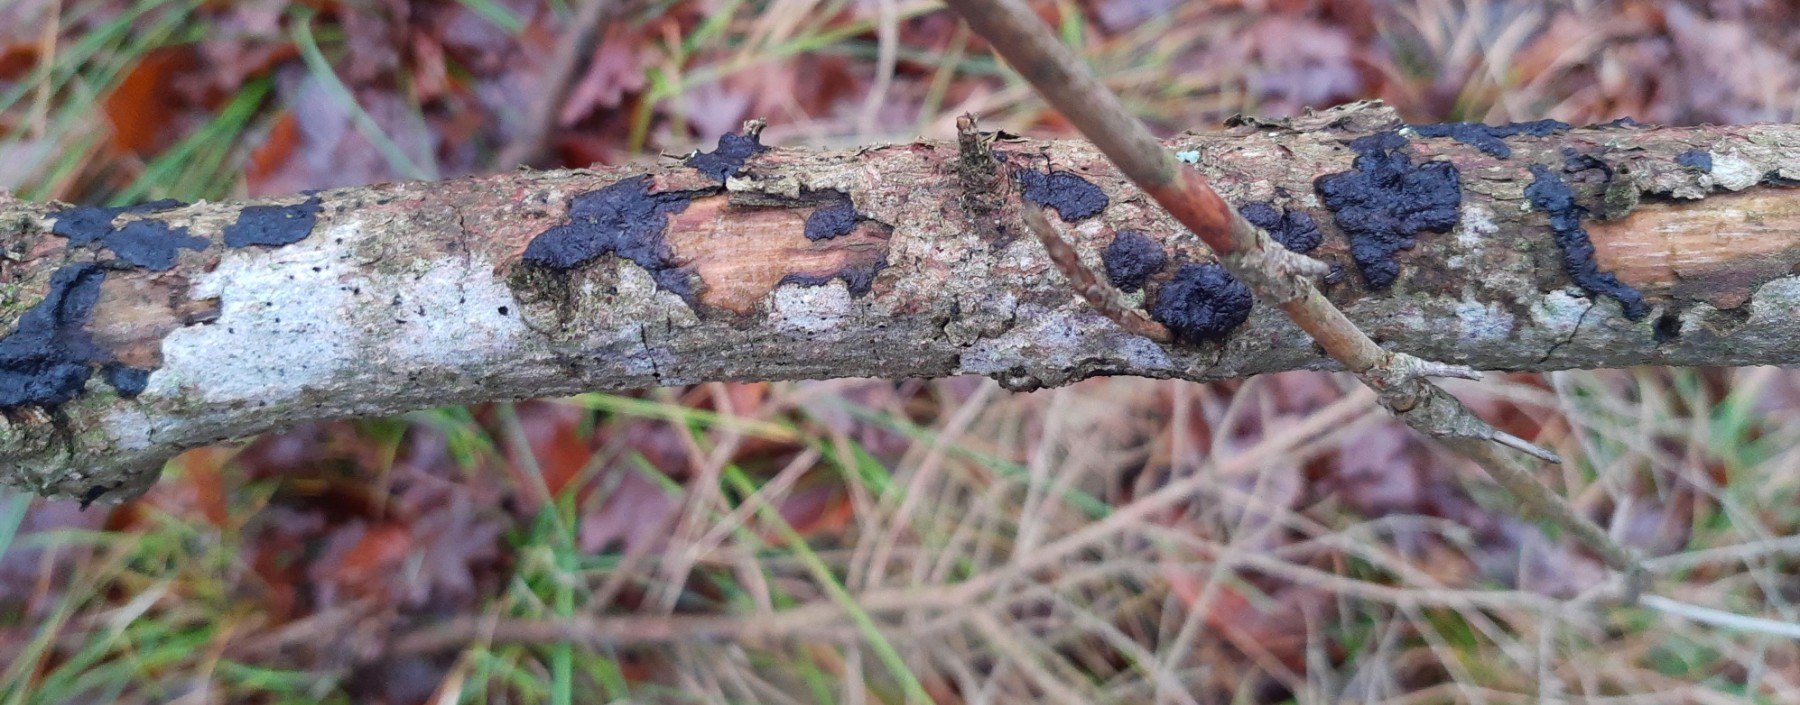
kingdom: Fungi
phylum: Basidiomycota
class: Agaricomycetes
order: Auriculariales
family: Auriculariaceae
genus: Exidia
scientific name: Exidia pithya
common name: gran-bævretop
